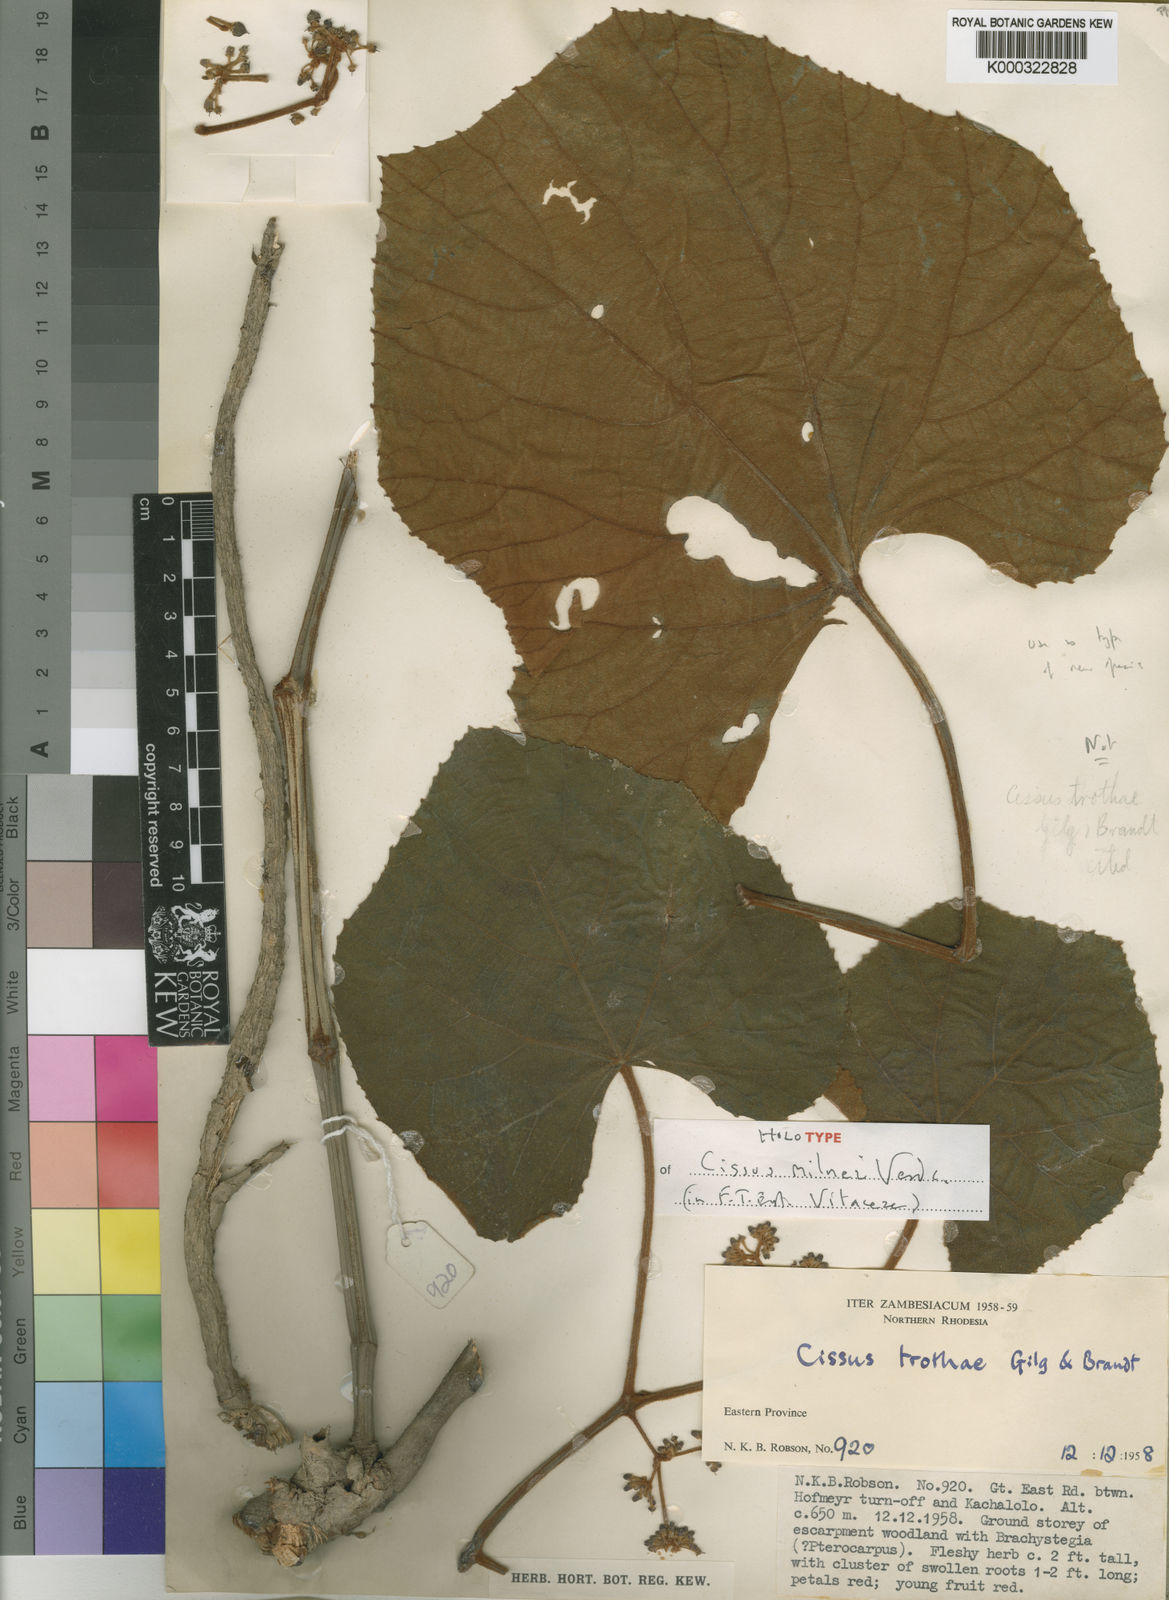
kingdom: Plantae
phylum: Tracheophyta
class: Magnoliopsida
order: Vitales
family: Vitaceae
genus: Cissus
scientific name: Cissus milnei
